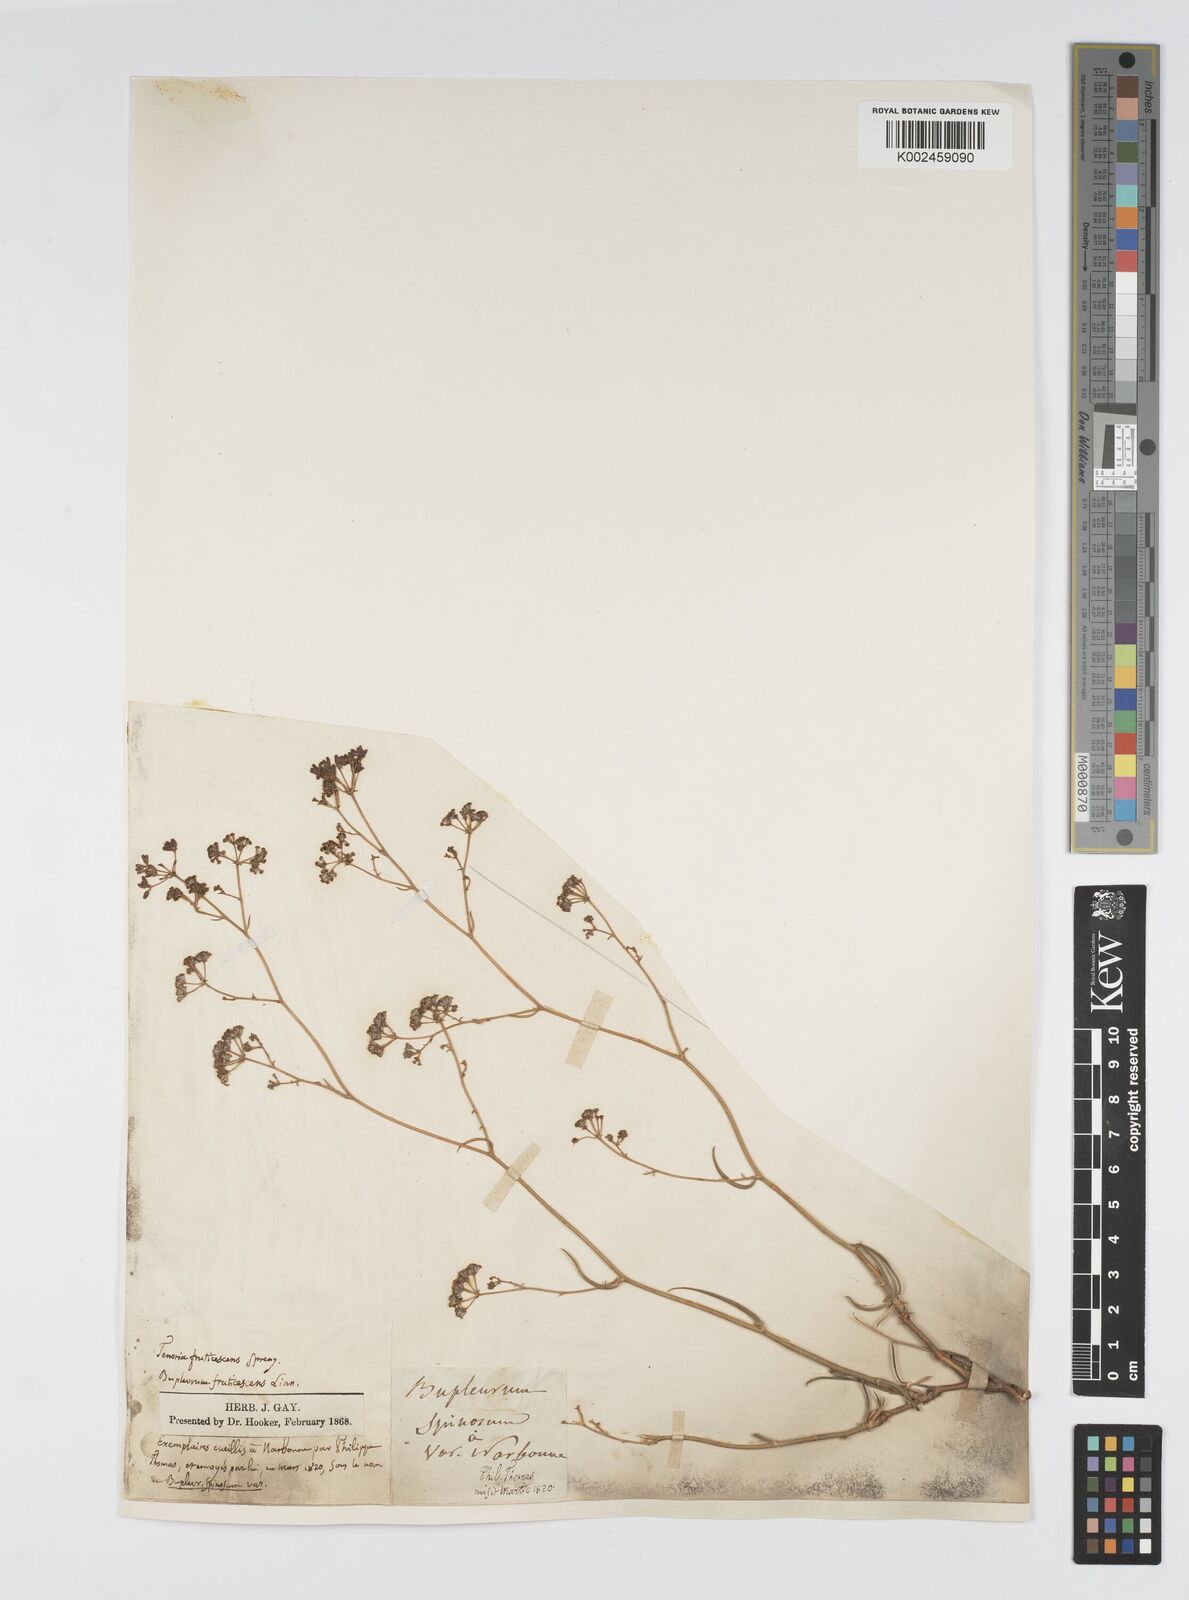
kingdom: Plantae
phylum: Tracheophyta
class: Magnoliopsida
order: Apiales
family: Apiaceae
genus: Bupleurum
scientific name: Bupleurum fruticescens
